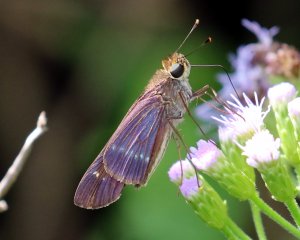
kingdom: Animalia
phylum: Arthropoda
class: Insecta
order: Lepidoptera
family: Hesperiidae
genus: Turesis
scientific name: Turesis lucas
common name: Purple-washed Skipper
